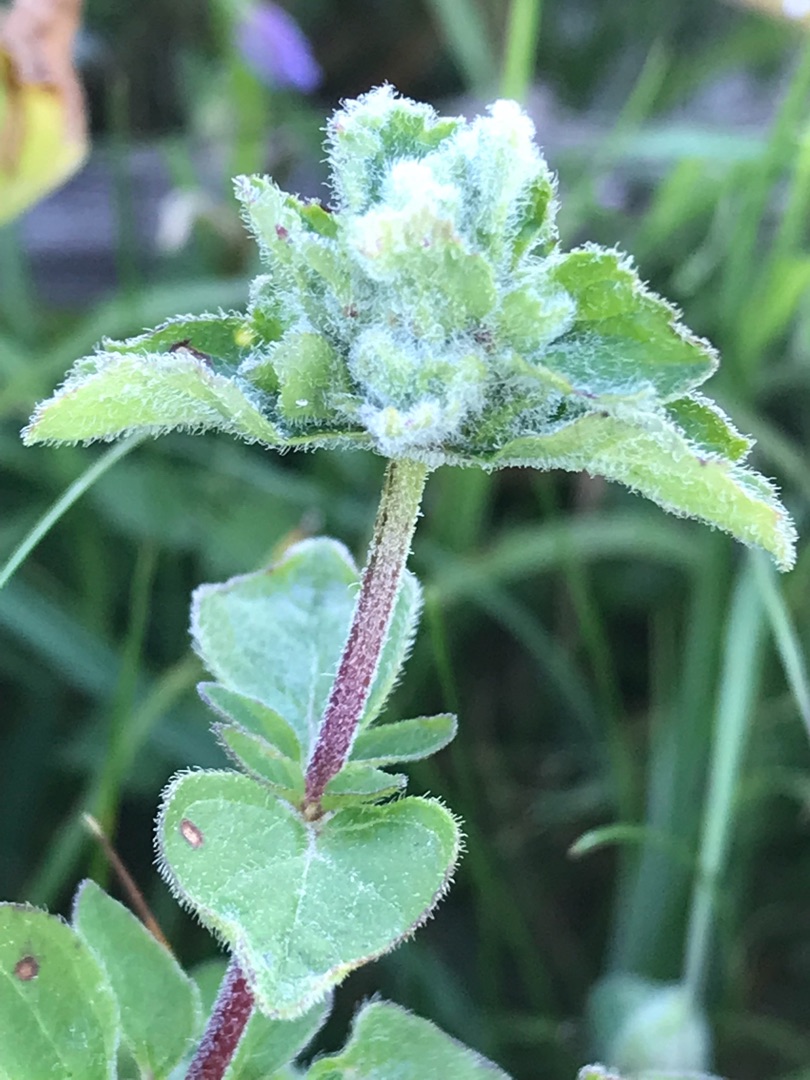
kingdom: Animalia
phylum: Arthropoda
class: Arachnida
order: Trombidiformes
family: Eriophyidae
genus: Aceria
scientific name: Aceria labiatiflorae
